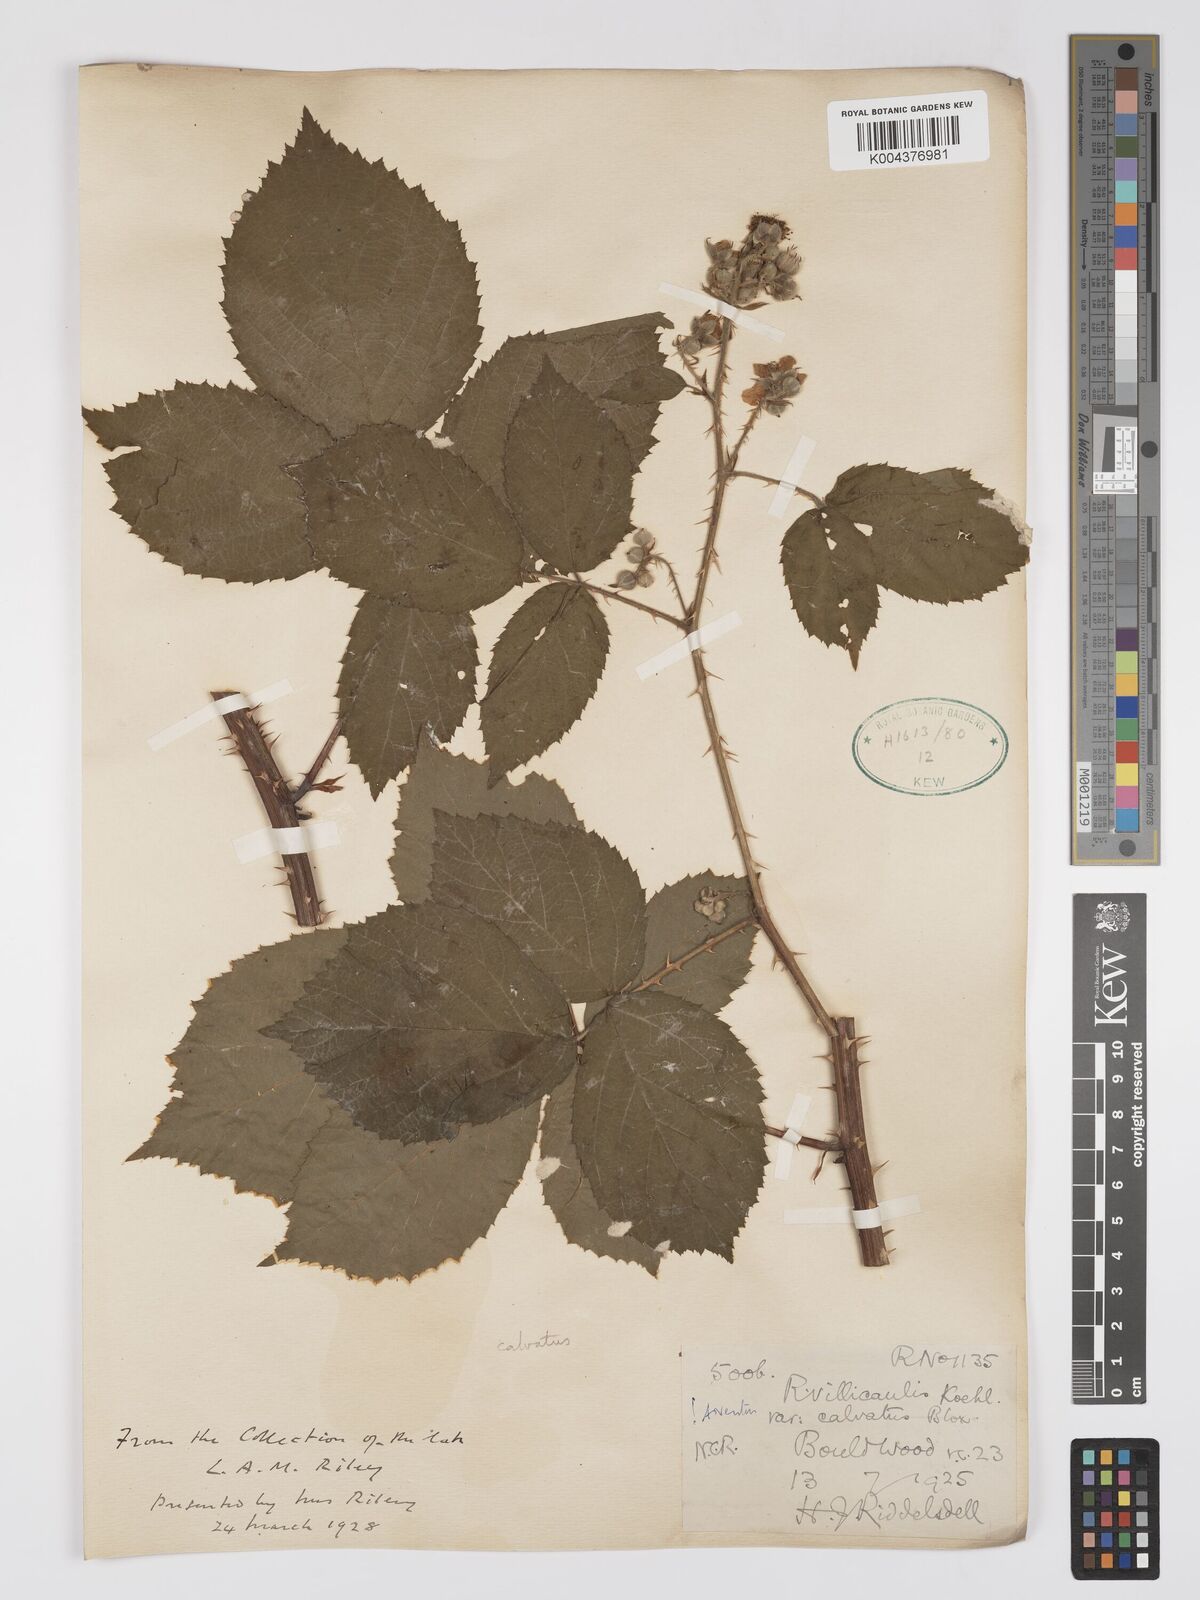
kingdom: Plantae
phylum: Tracheophyta
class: Magnoliopsida
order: Rosales
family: Rosaceae
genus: Rubus
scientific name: Rubus calvatus
